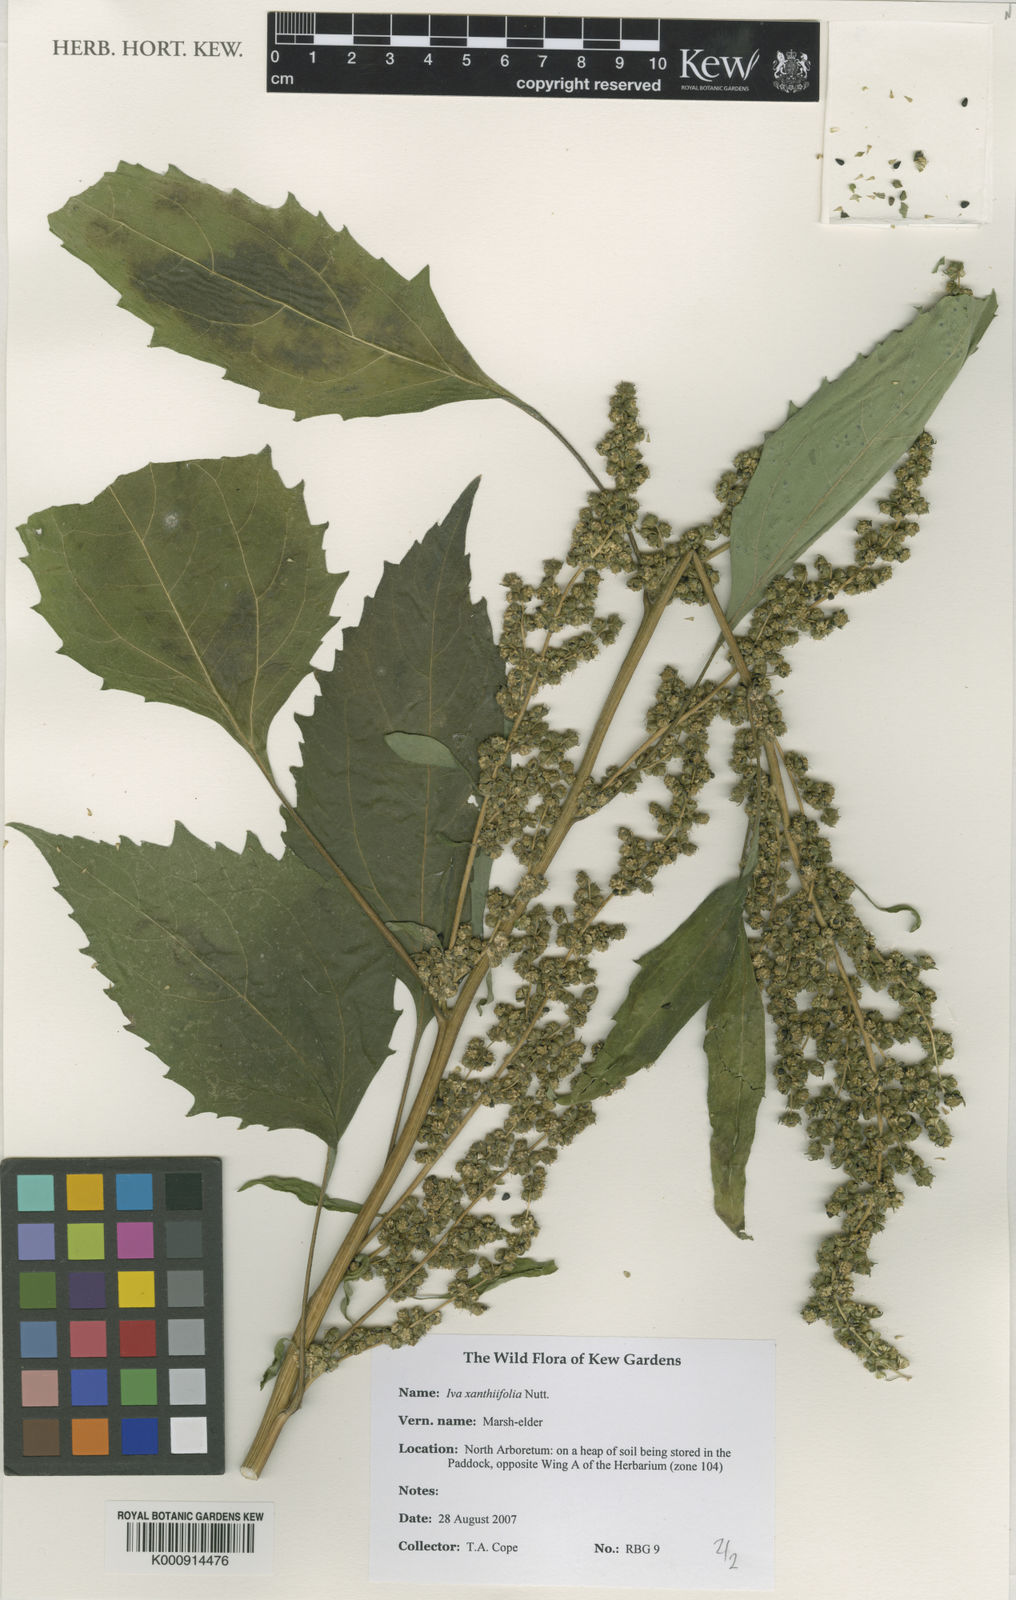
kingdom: Plantae
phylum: Tracheophyta
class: Magnoliopsida
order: Asterales
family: Asteraceae
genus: Cyclachaena
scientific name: Cyclachaena xanthiifolia
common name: Giant sumpweed
